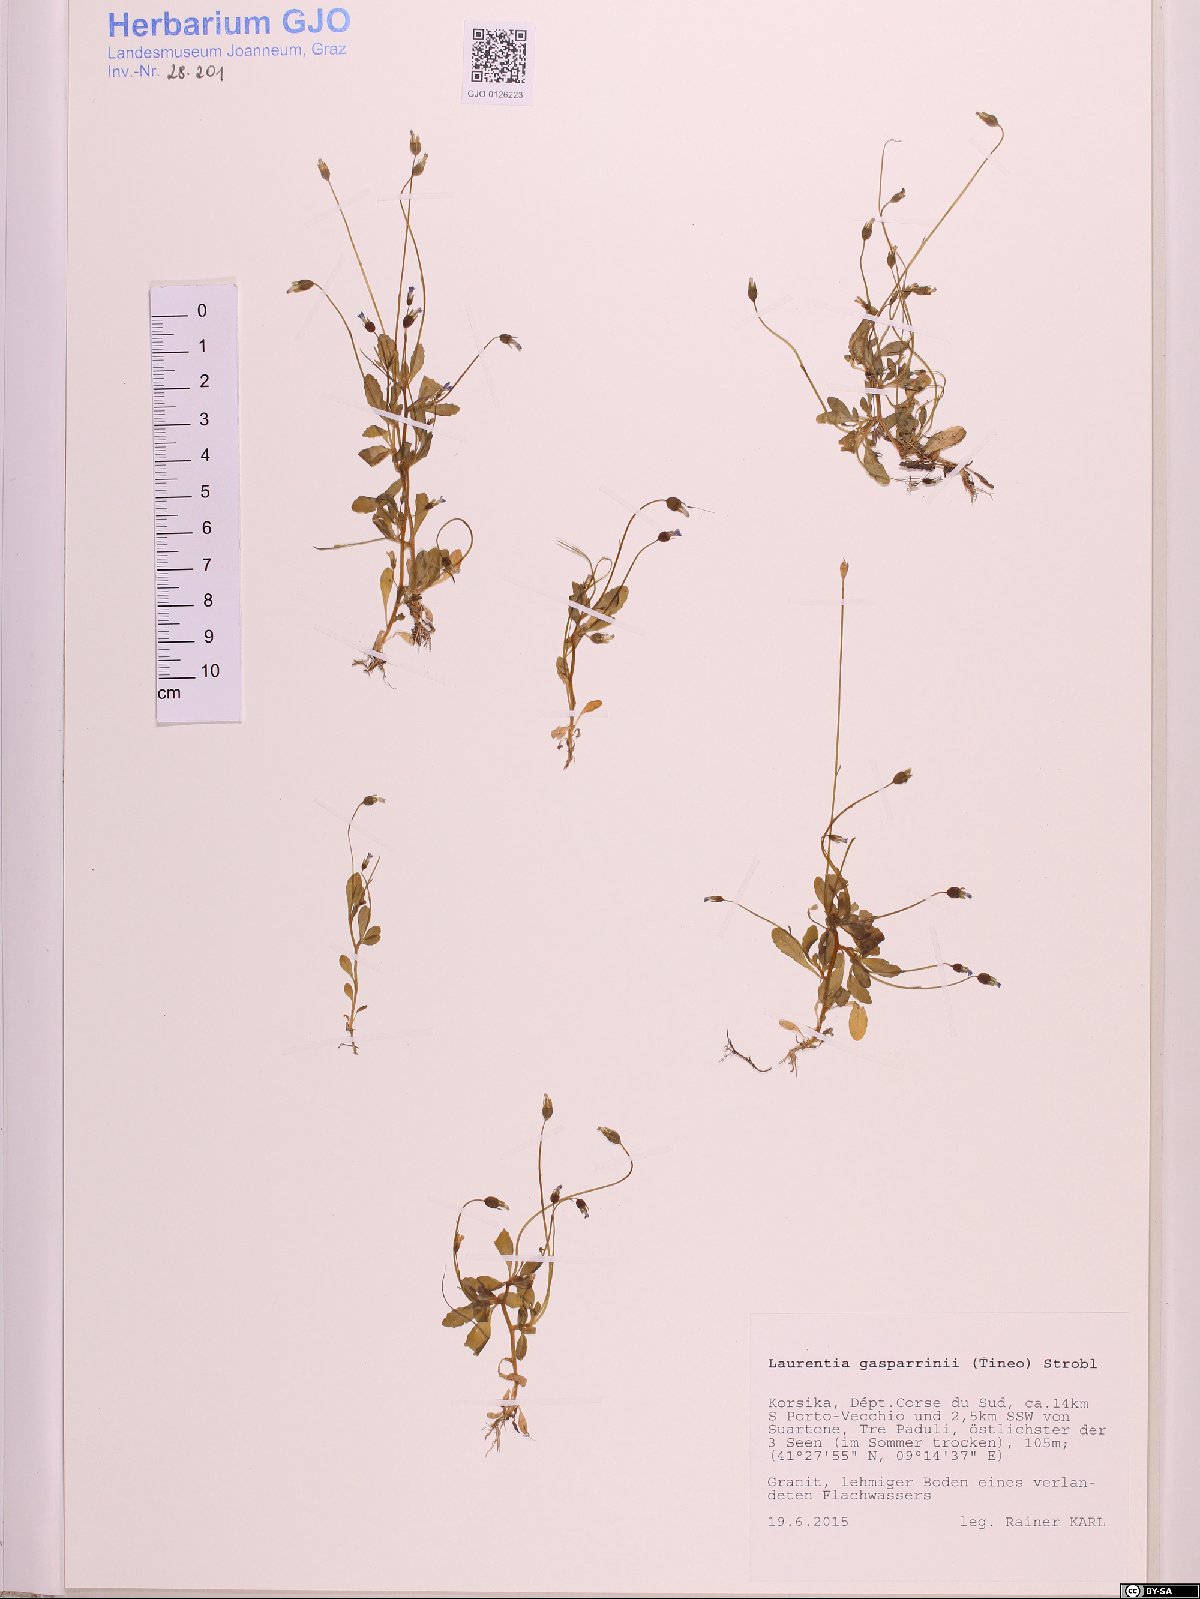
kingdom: Plantae
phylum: Tracheophyta
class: Magnoliopsida
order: Asterales
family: Campanulaceae
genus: Solenopsis
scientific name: Solenopsis laurentia
